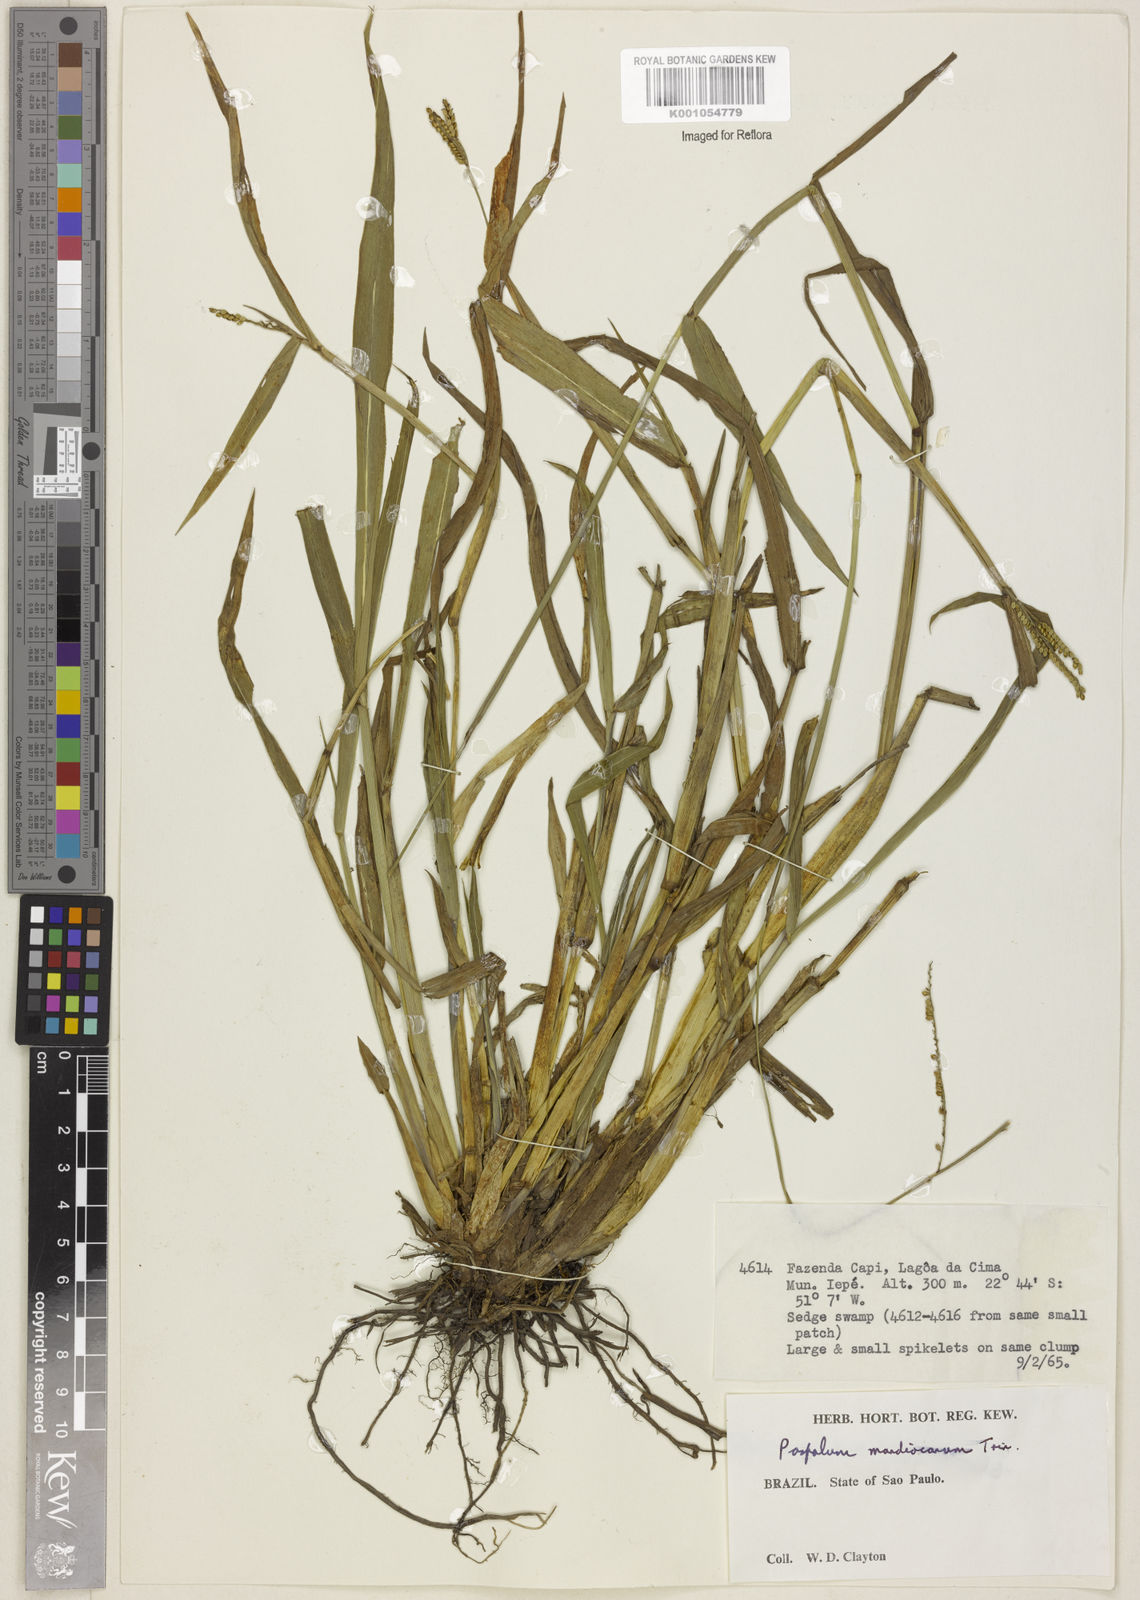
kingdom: Plantae
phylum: Tracheophyta
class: Liliopsida
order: Poales
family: Poaceae
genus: Paspalum
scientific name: Paspalum mandiocanum
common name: Paspalum
